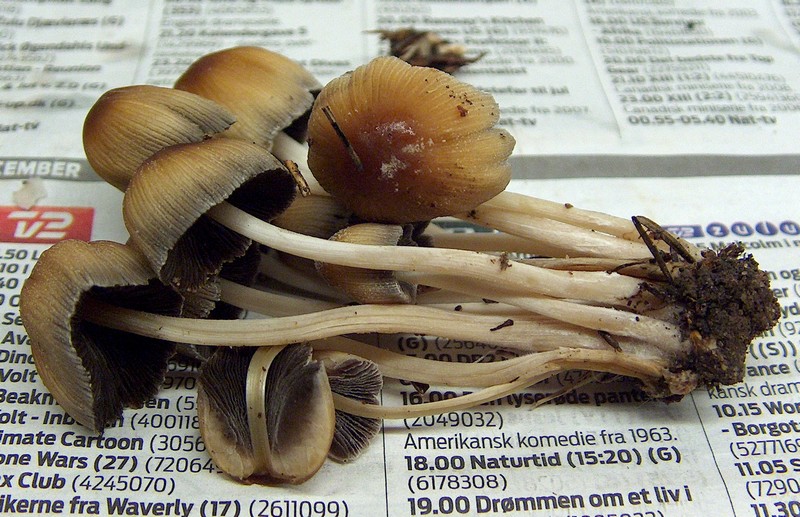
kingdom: Fungi
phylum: Basidiomycota
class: Agaricomycetes
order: Agaricales
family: Psathyrellaceae
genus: Coprinellus
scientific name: Coprinellus micaceus
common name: glimmer-blækhat
